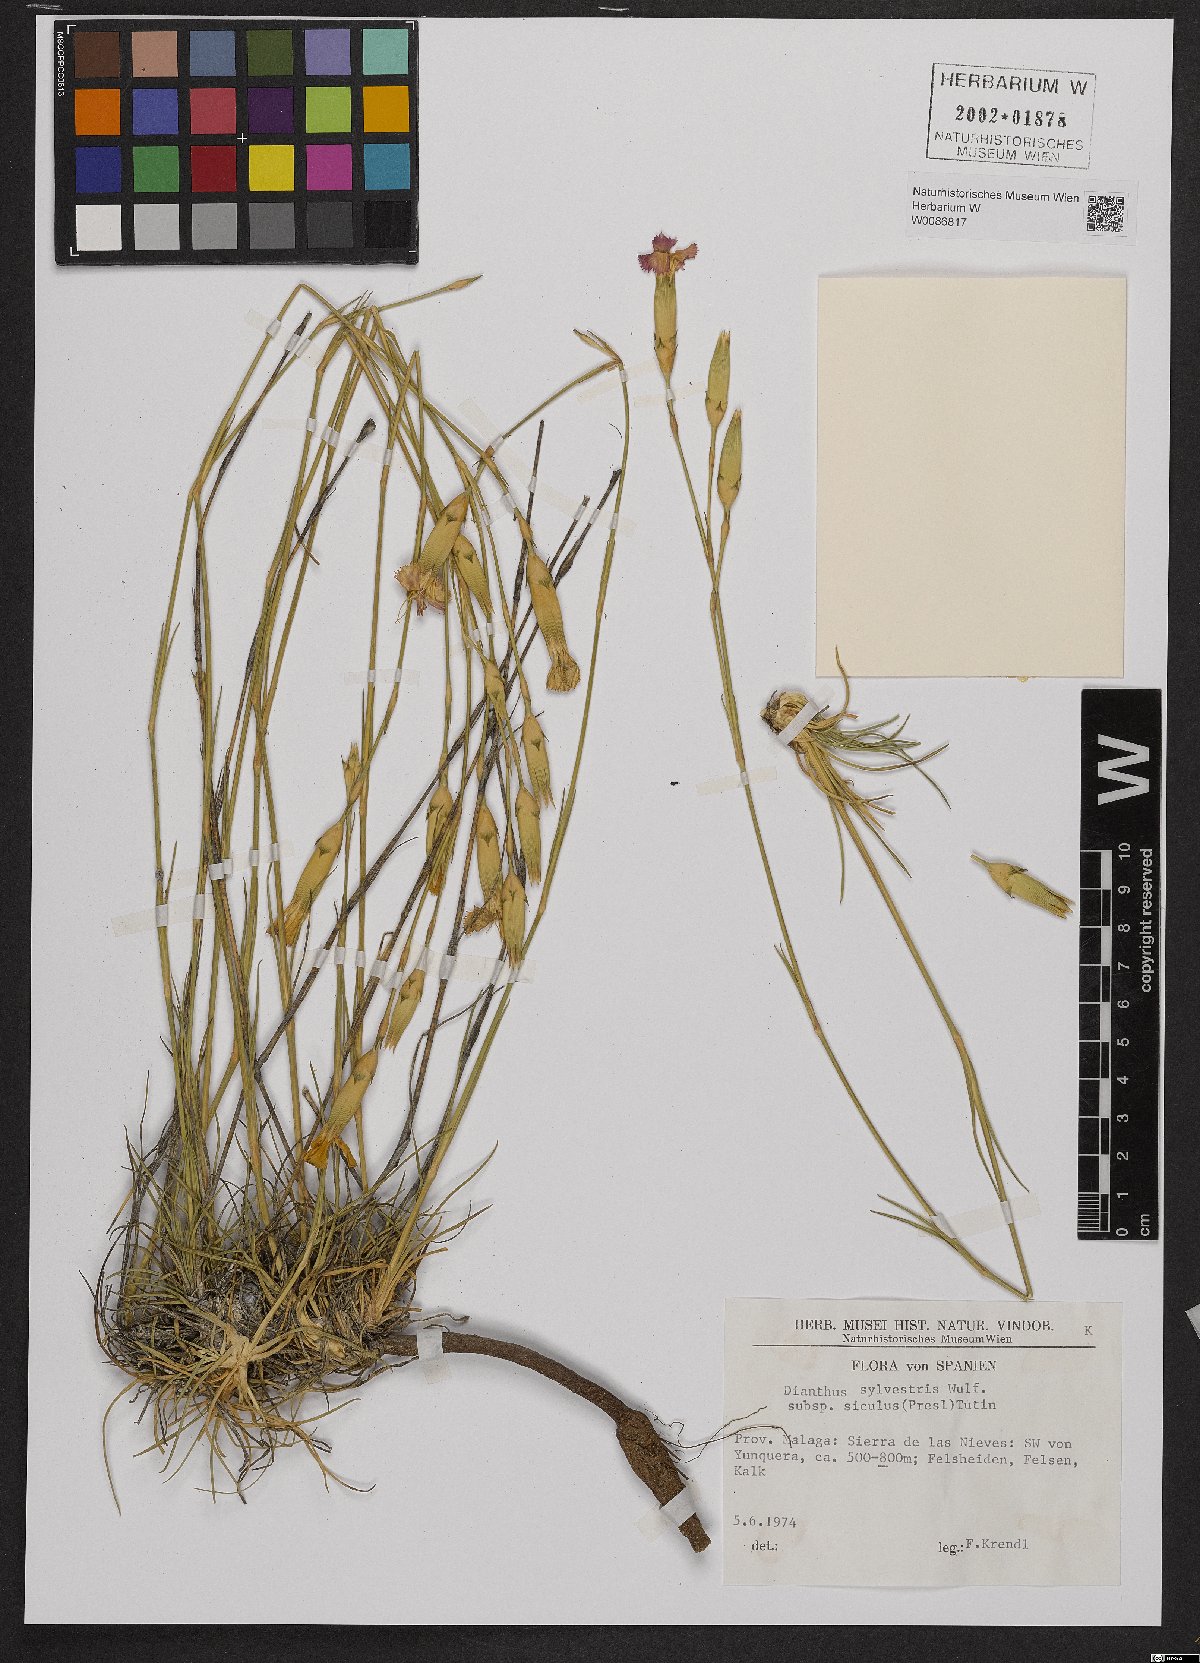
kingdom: Plantae
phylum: Tracheophyta
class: Magnoliopsida
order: Caryophyllales
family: Caryophyllaceae
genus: Dianthus
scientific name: Dianthus siculus
